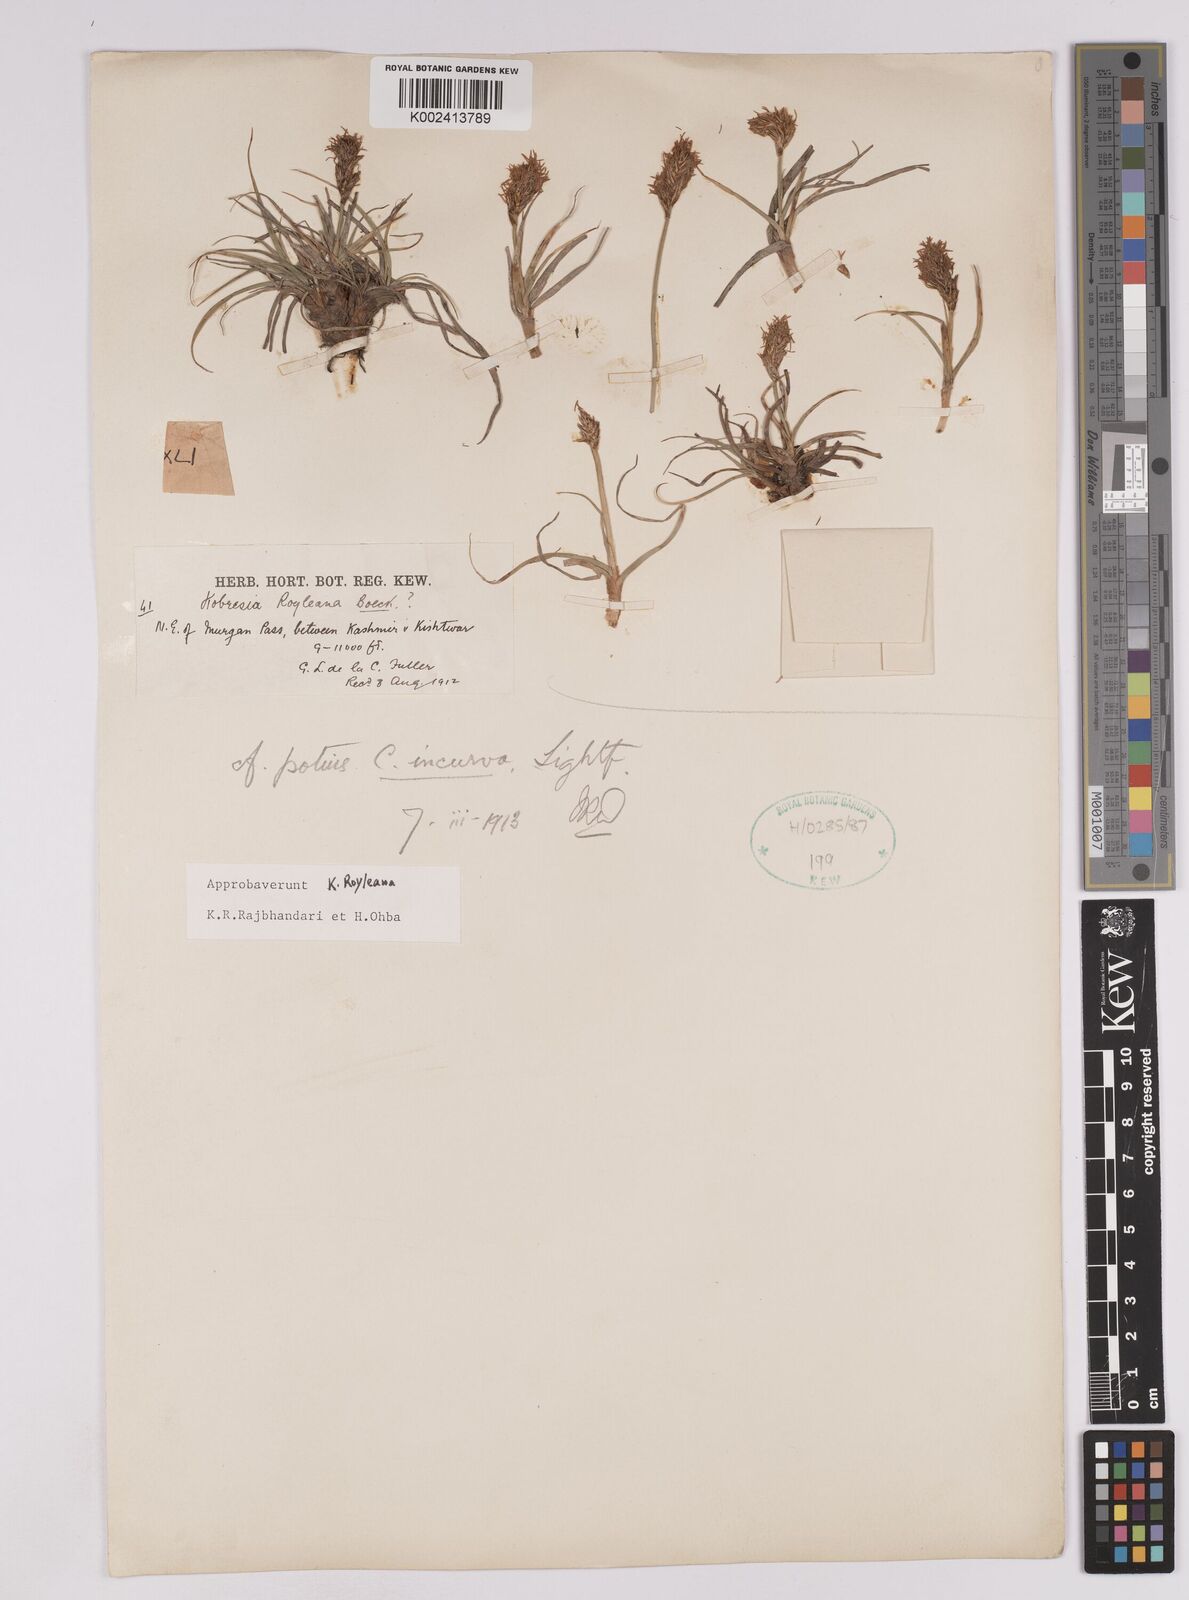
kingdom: Plantae
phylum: Tracheophyta
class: Liliopsida
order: Poales
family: Cyperaceae
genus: Carex
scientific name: Carex kokanica
